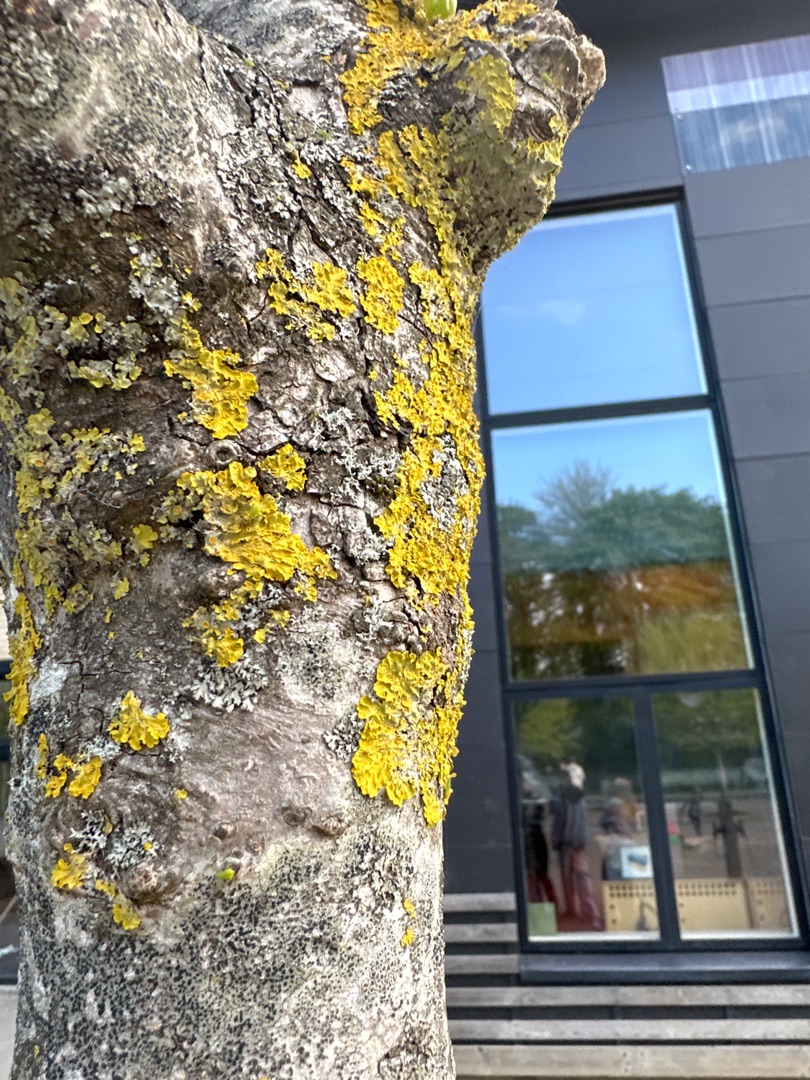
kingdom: Fungi
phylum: Ascomycota
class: Lecanoromycetes
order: Teloschistales
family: Teloschistaceae
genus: Xanthoria
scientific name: Xanthoria parietina
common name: Almindelig væggelav
